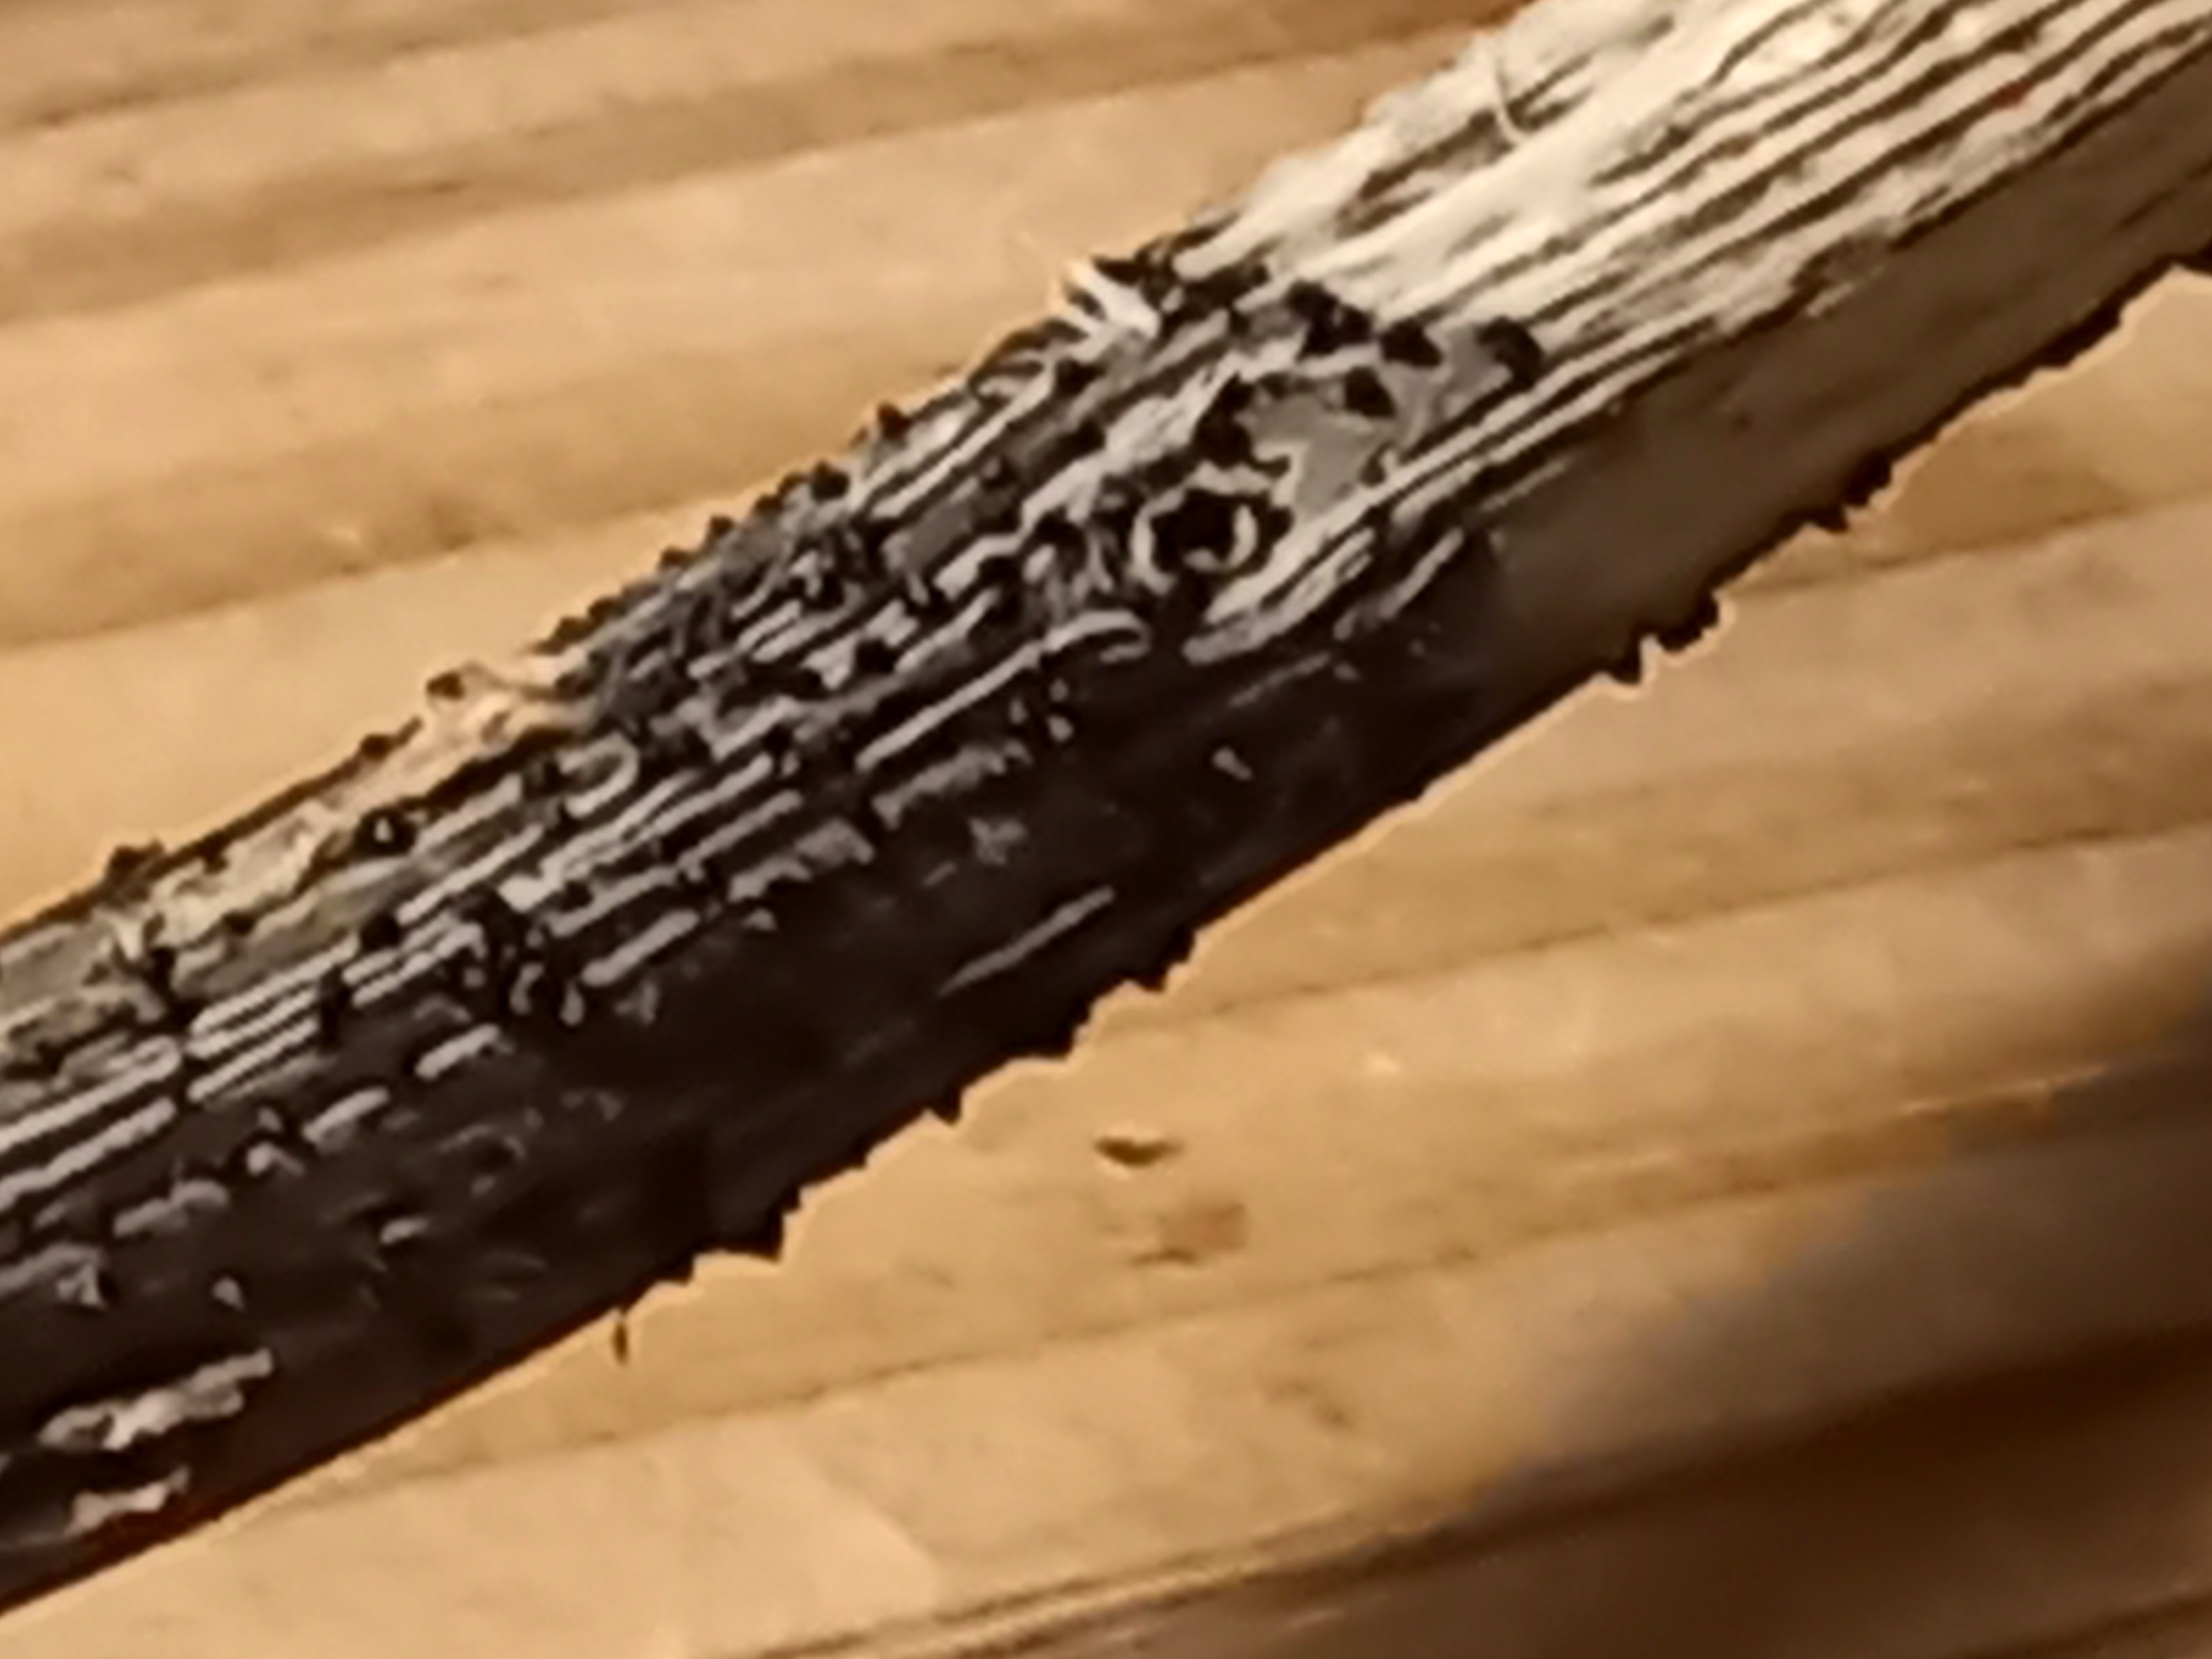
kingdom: Fungi
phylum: Ascomycota
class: Dothideomycetes
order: Pleosporales
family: Leptosphaeriaceae
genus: Leptosphaeria
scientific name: Leptosphaeria
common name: kulkegle
